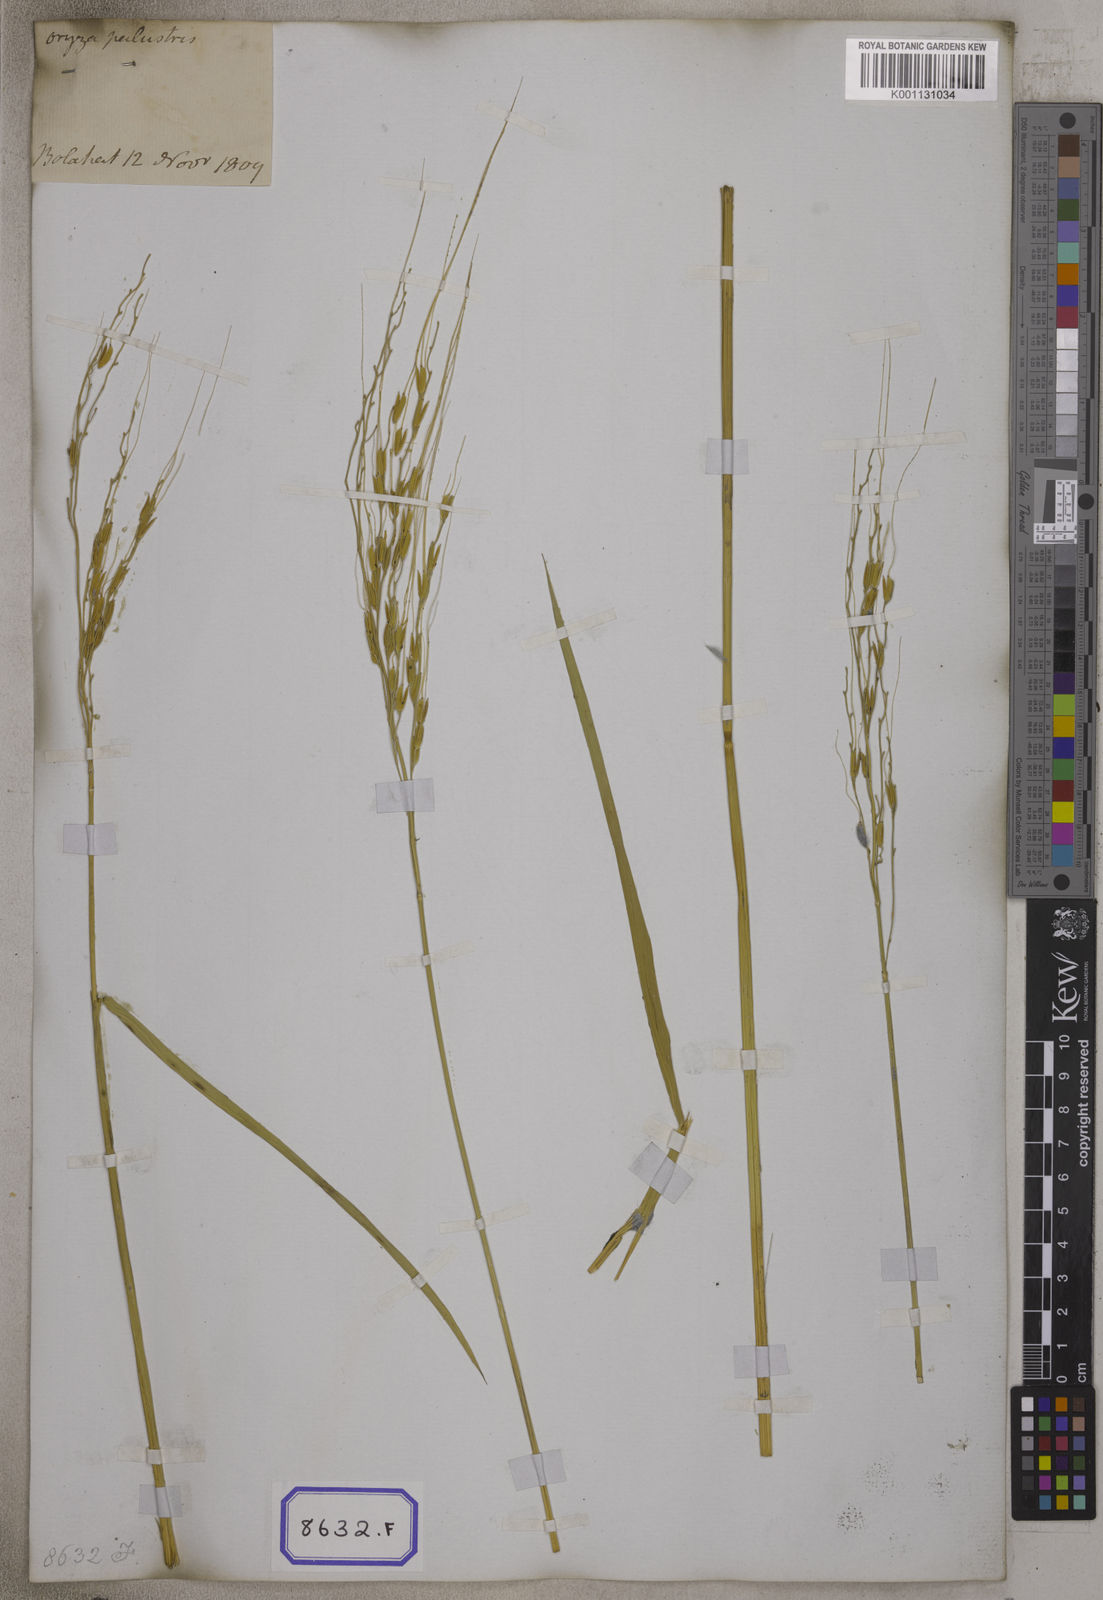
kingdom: Plantae
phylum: Tracheophyta
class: Liliopsida
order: Poales
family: Poaceae
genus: Oryza
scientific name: Oryza sativa
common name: Rice
